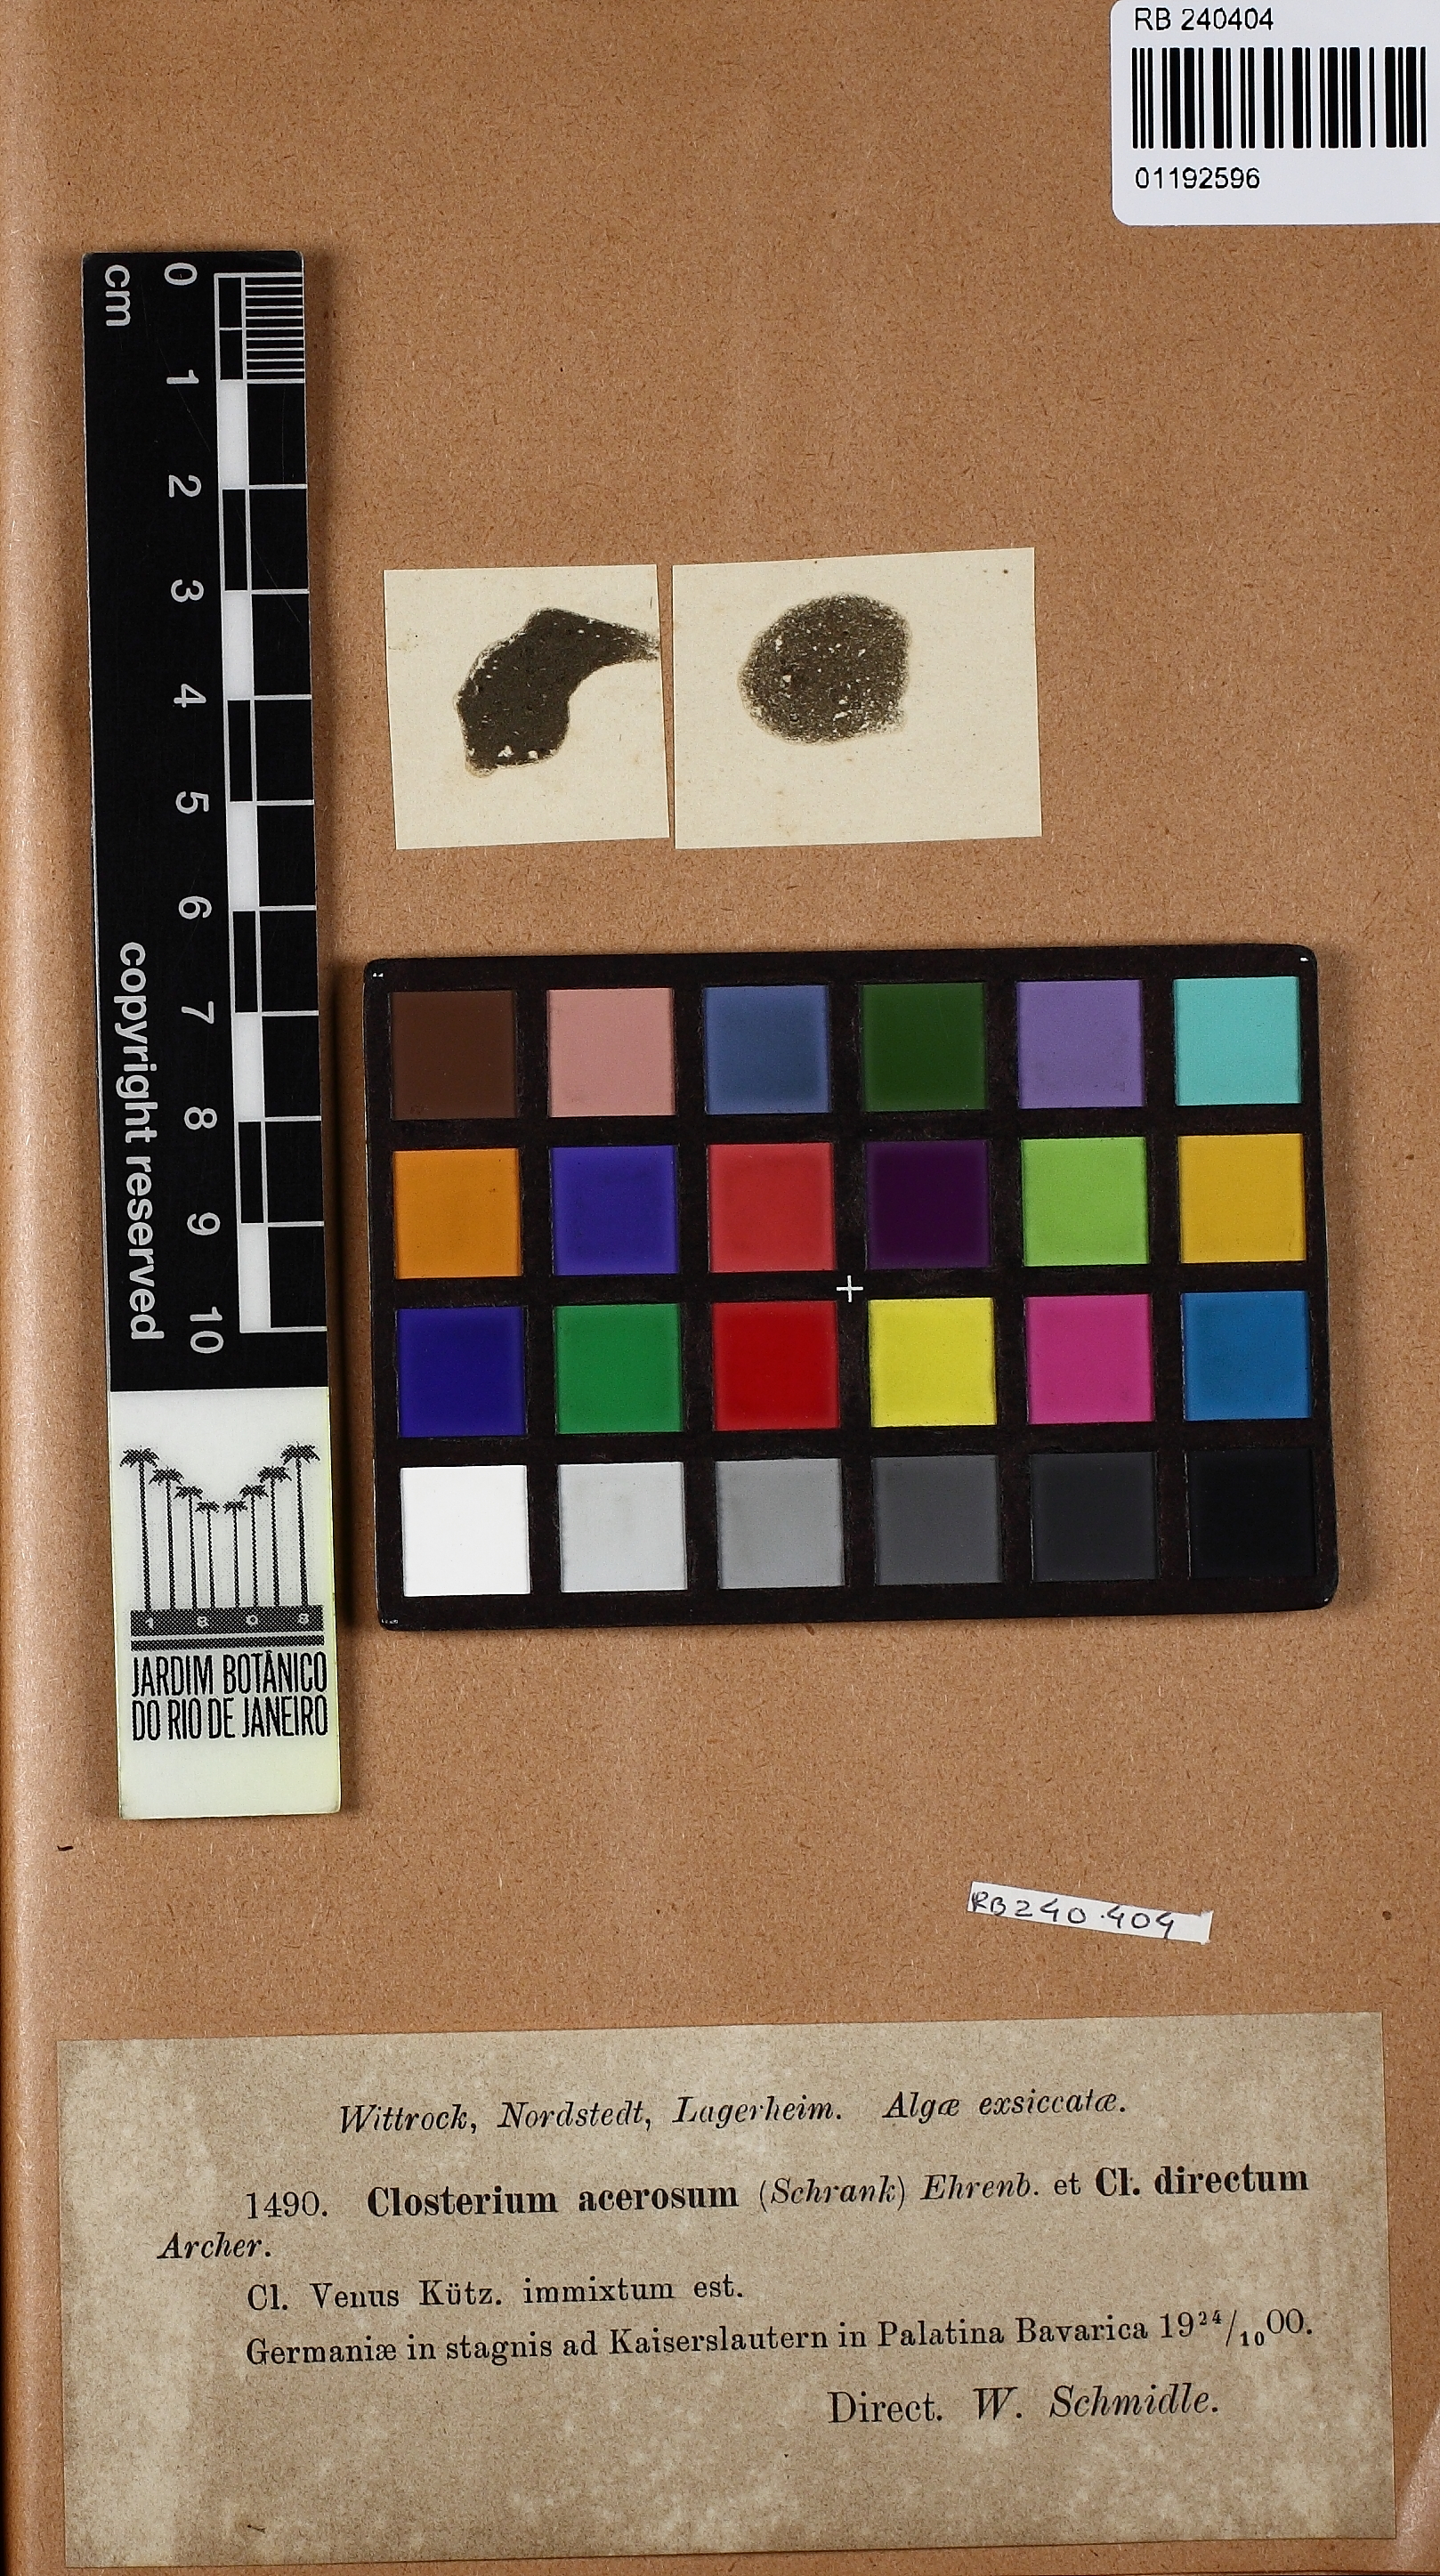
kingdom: Plantae
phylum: Charophyta
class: Zygnematophyceae
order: Zygnematales
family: Closteriaceae
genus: Closterium
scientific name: Closterium acerosum
